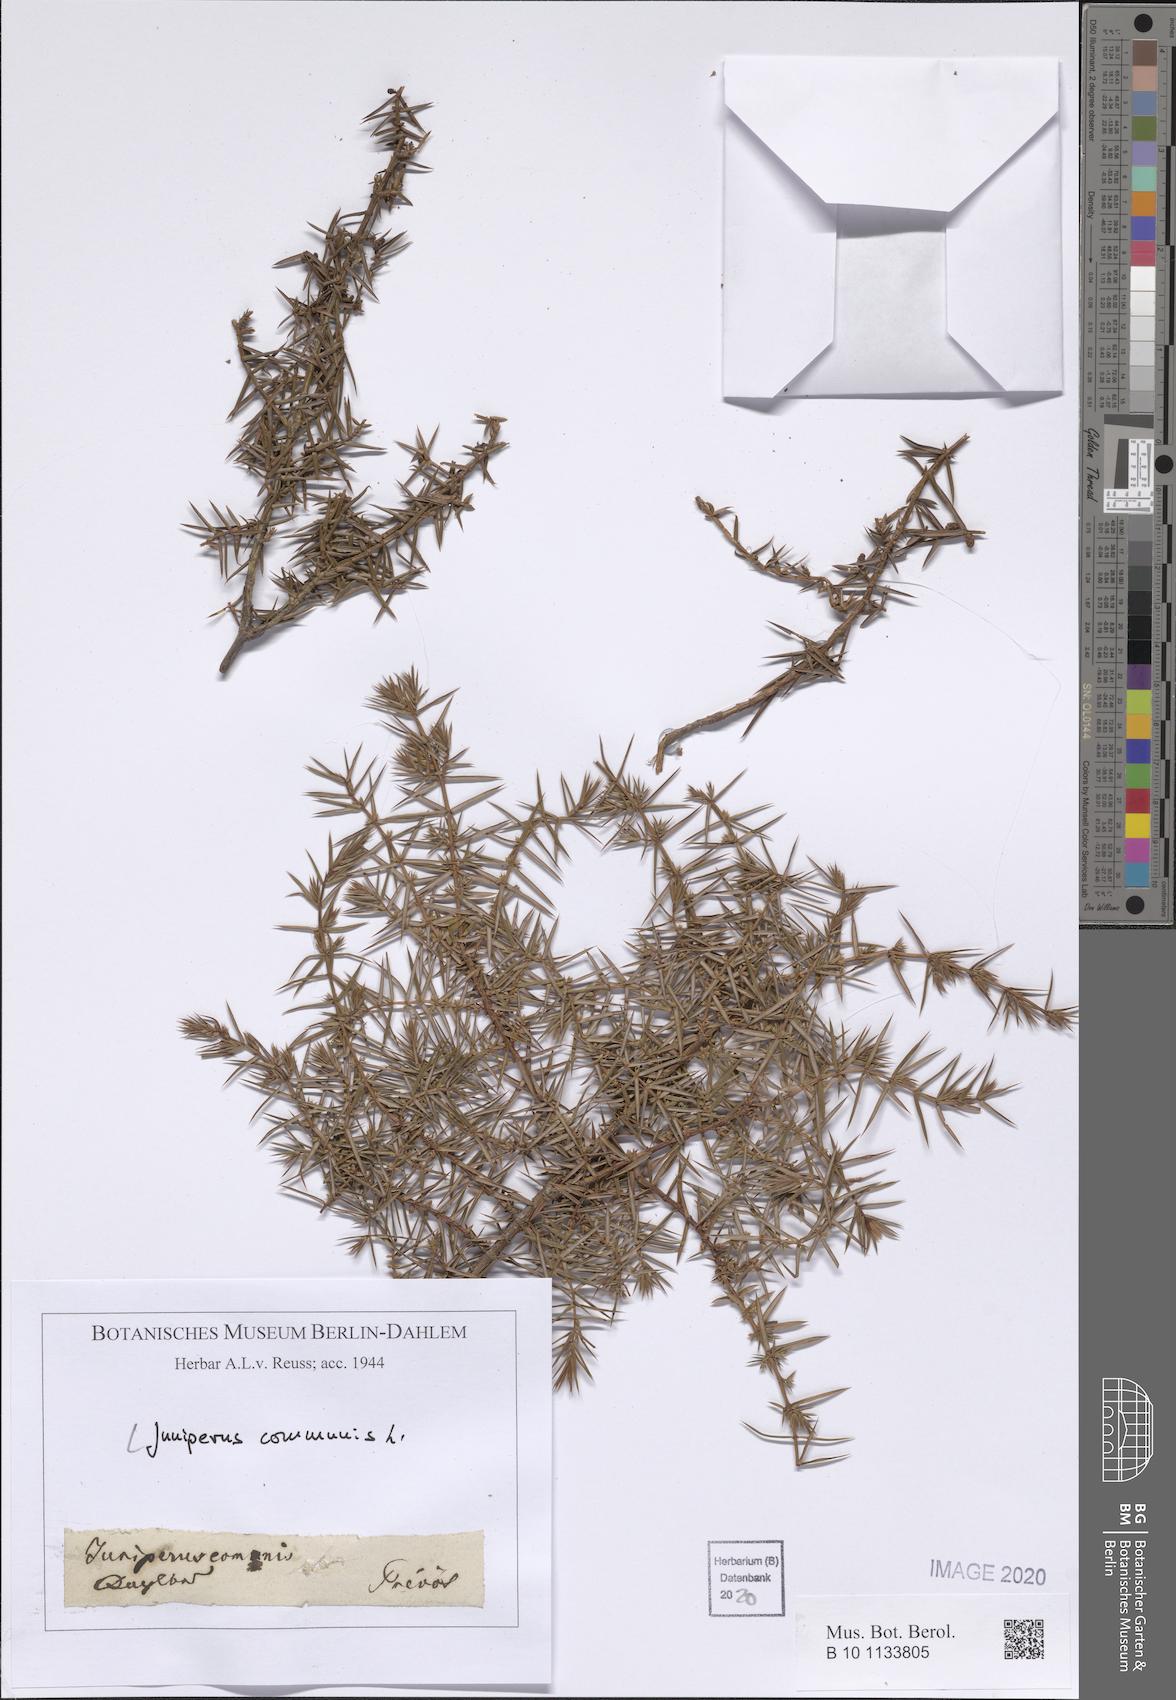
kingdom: Plantae
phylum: Tracheophyta
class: Pinopsida
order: Pinales
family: Cupressaceae
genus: Juniperus
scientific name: Juniperus communis
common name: Common juniper
